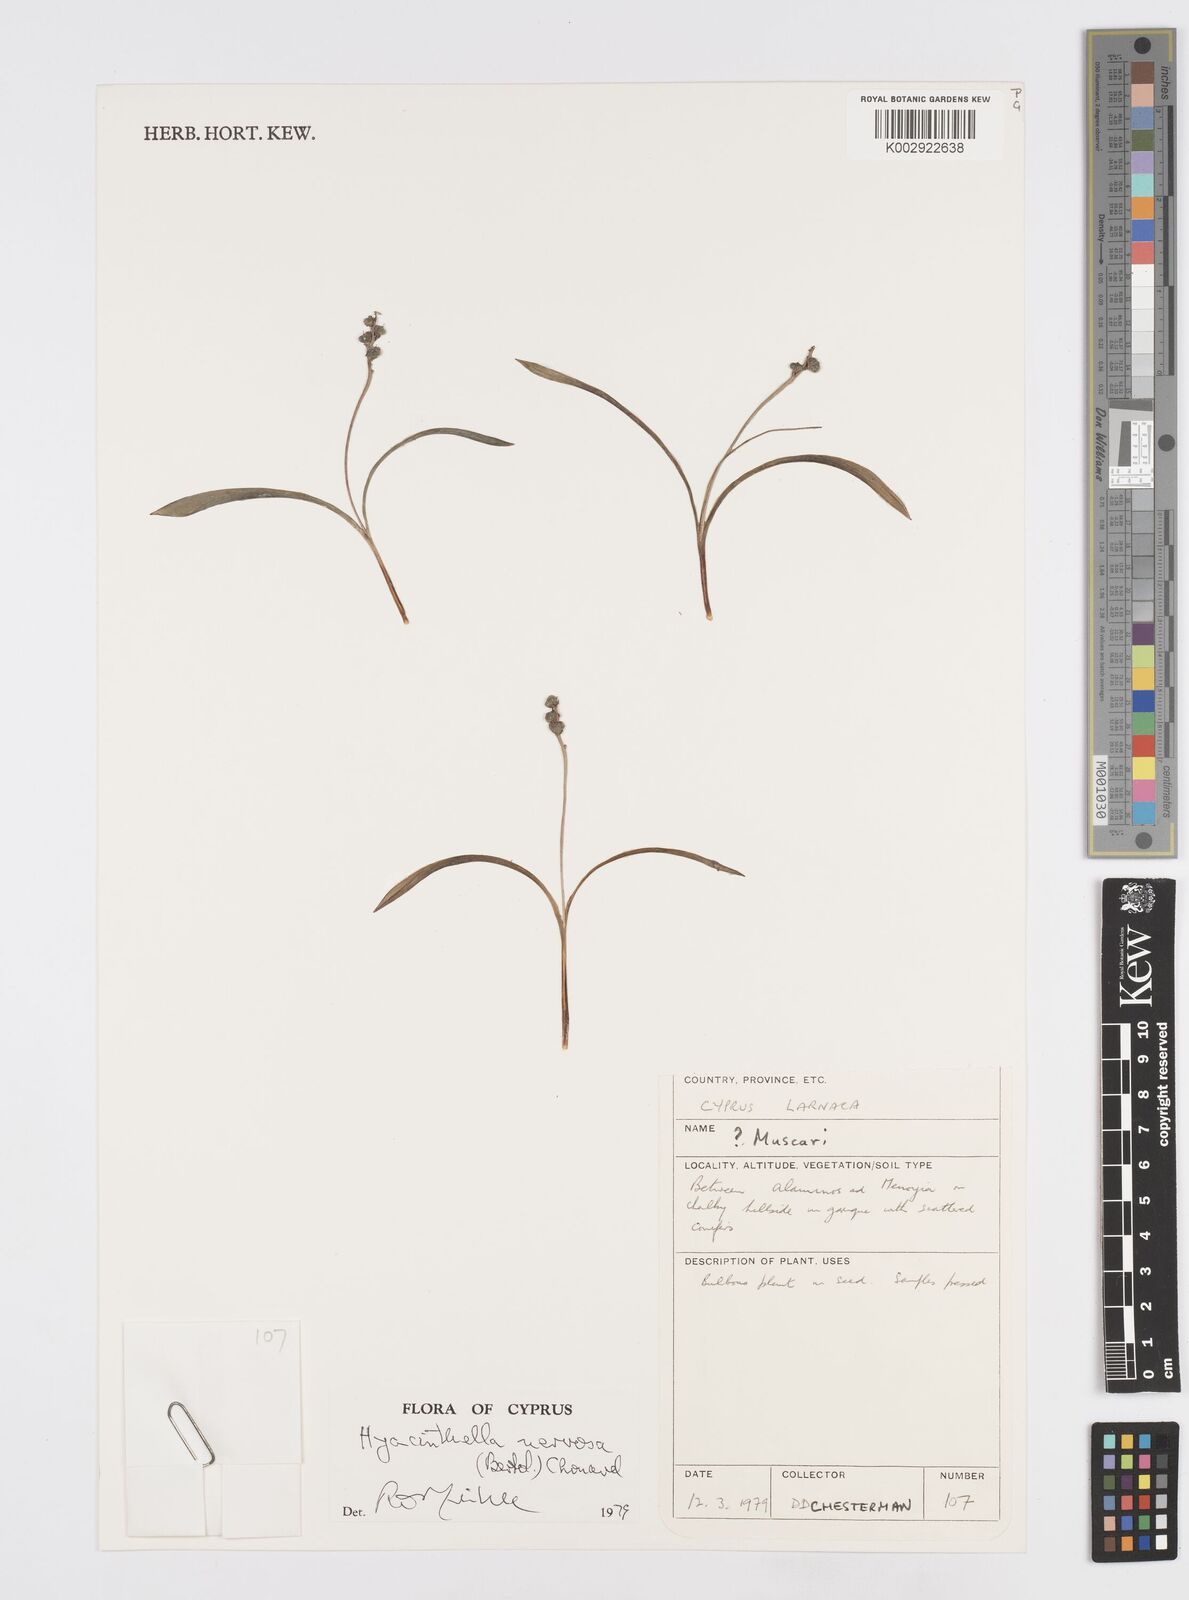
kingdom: Plantae
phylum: Tracheophyta
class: Liliopsida
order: Asparagales
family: Asparagaceae
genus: Hyacinthella
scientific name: Hyacinthella nervosa
